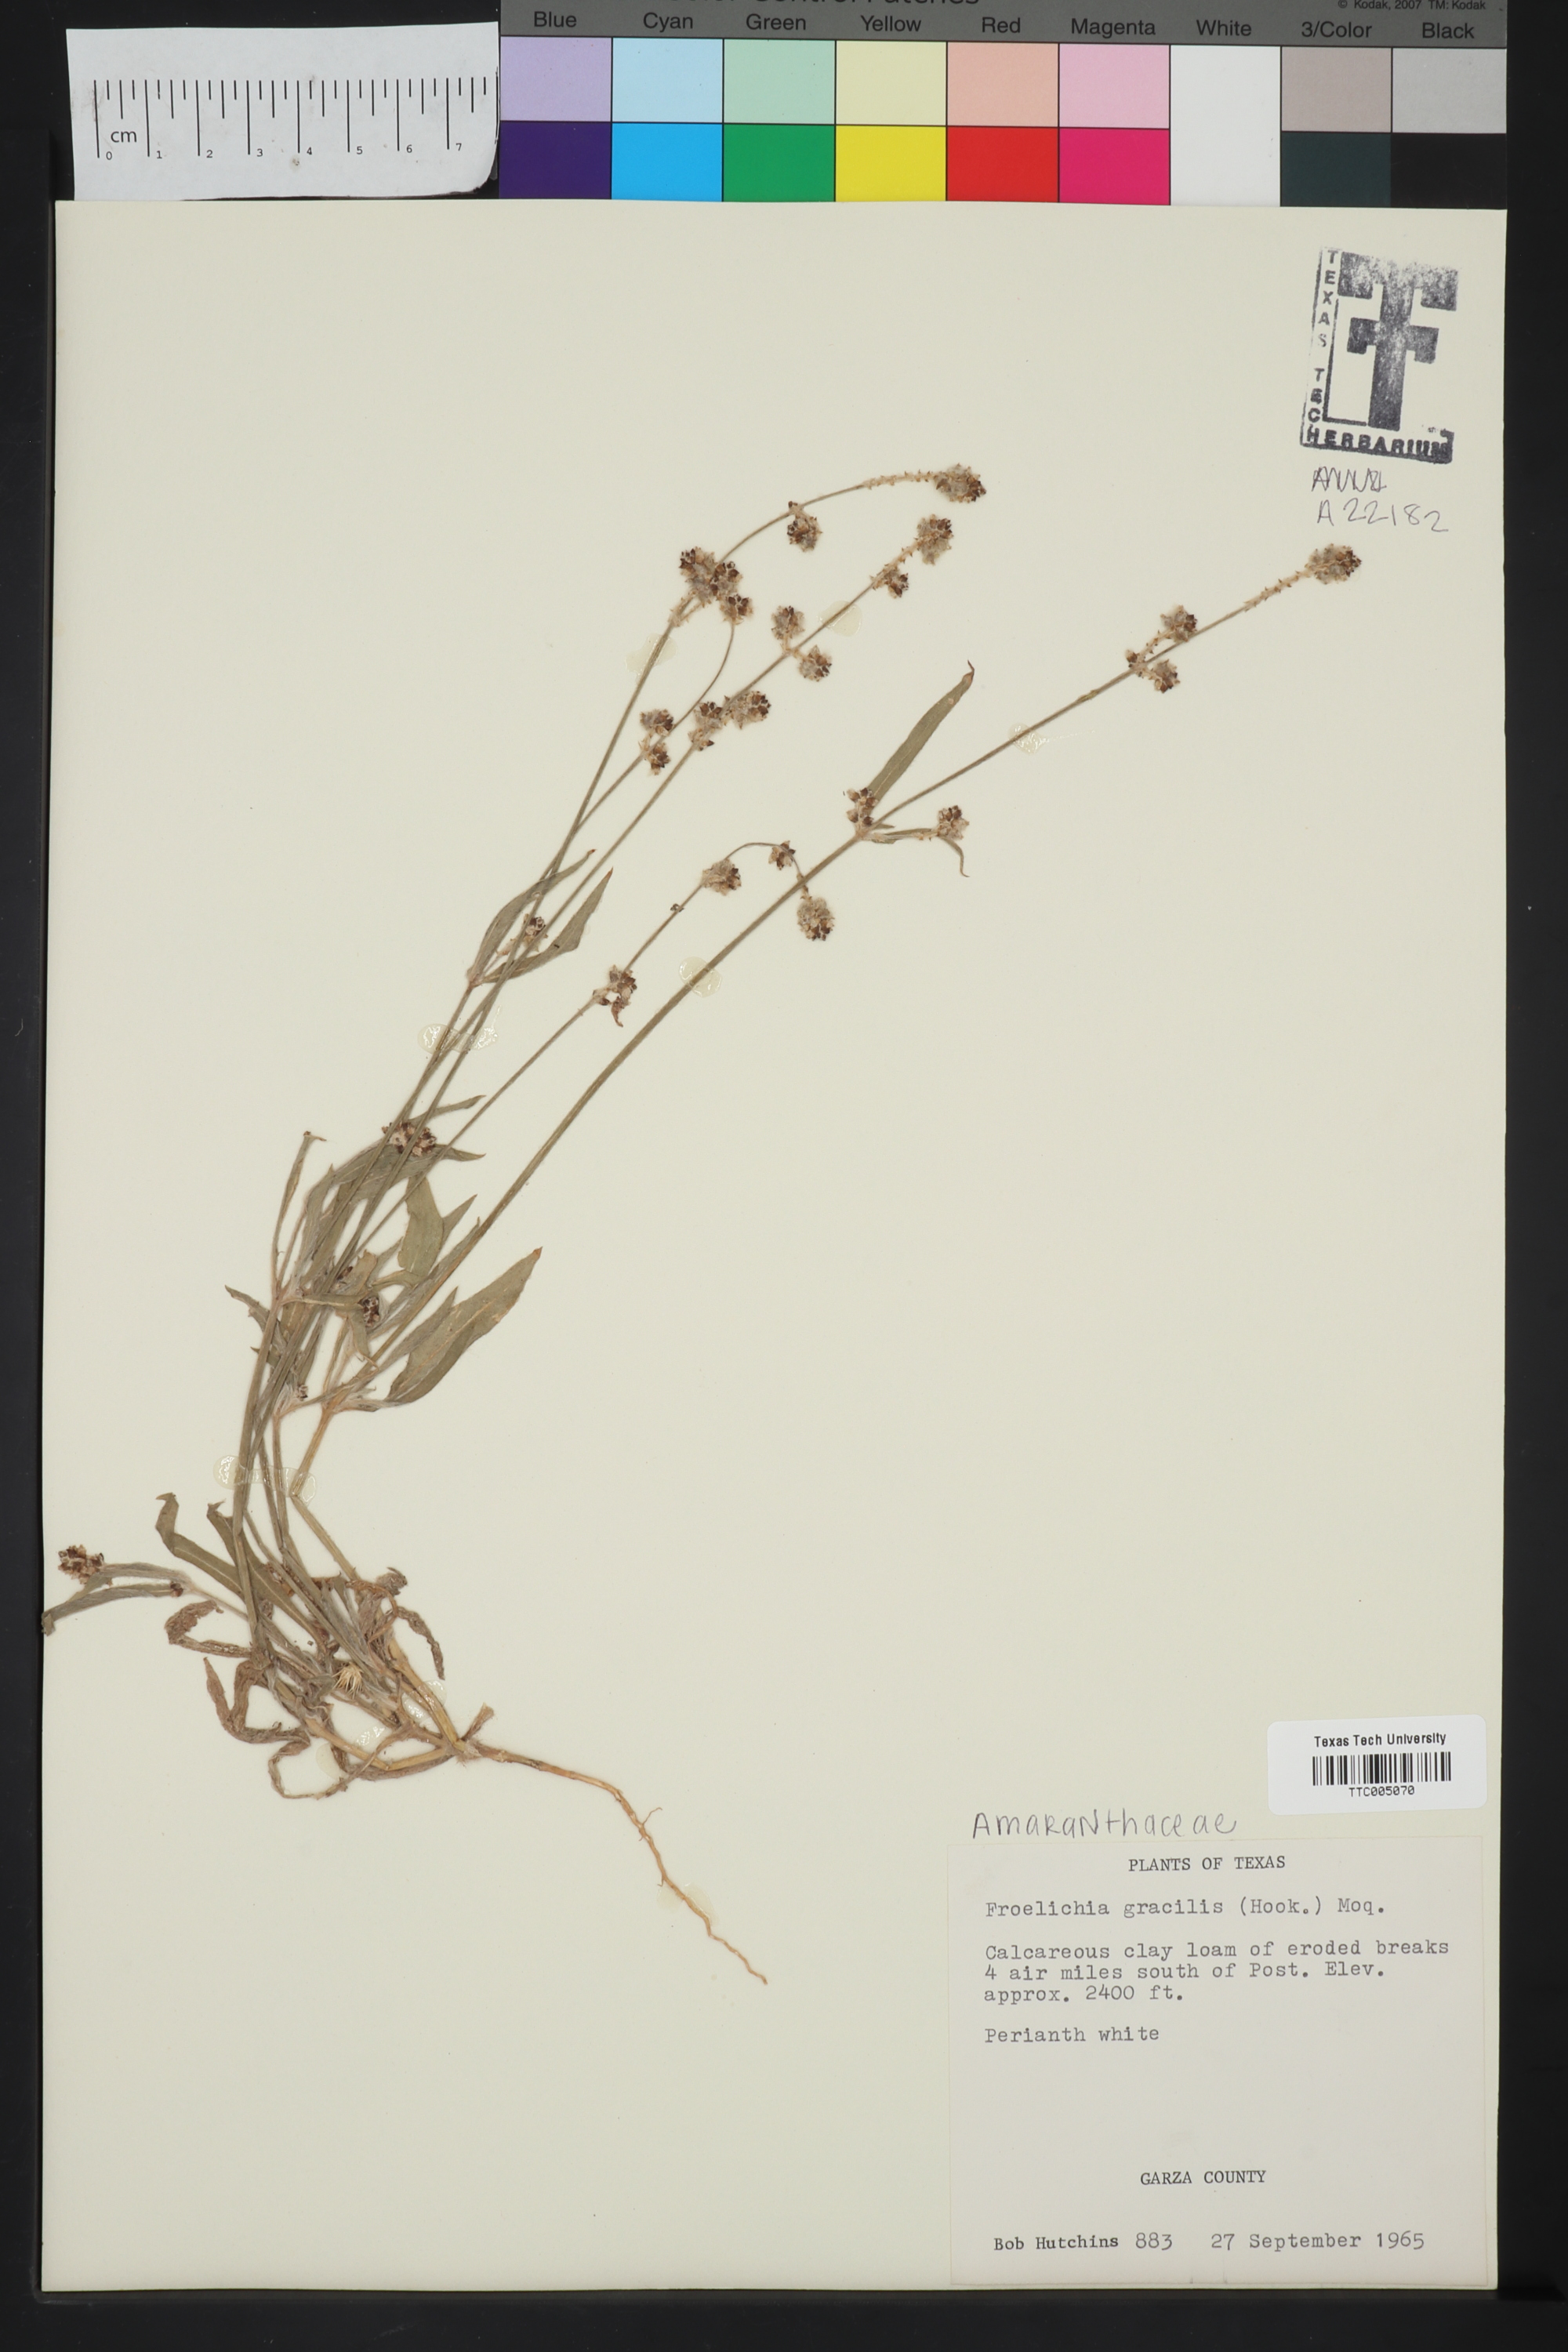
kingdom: Plantae
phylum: Tracheophyta
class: Magnoliopsida
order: Caryophyllales
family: Amaranthaceae
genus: Froelichia
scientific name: Froelichia gracilis
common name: Slender cottonweed
